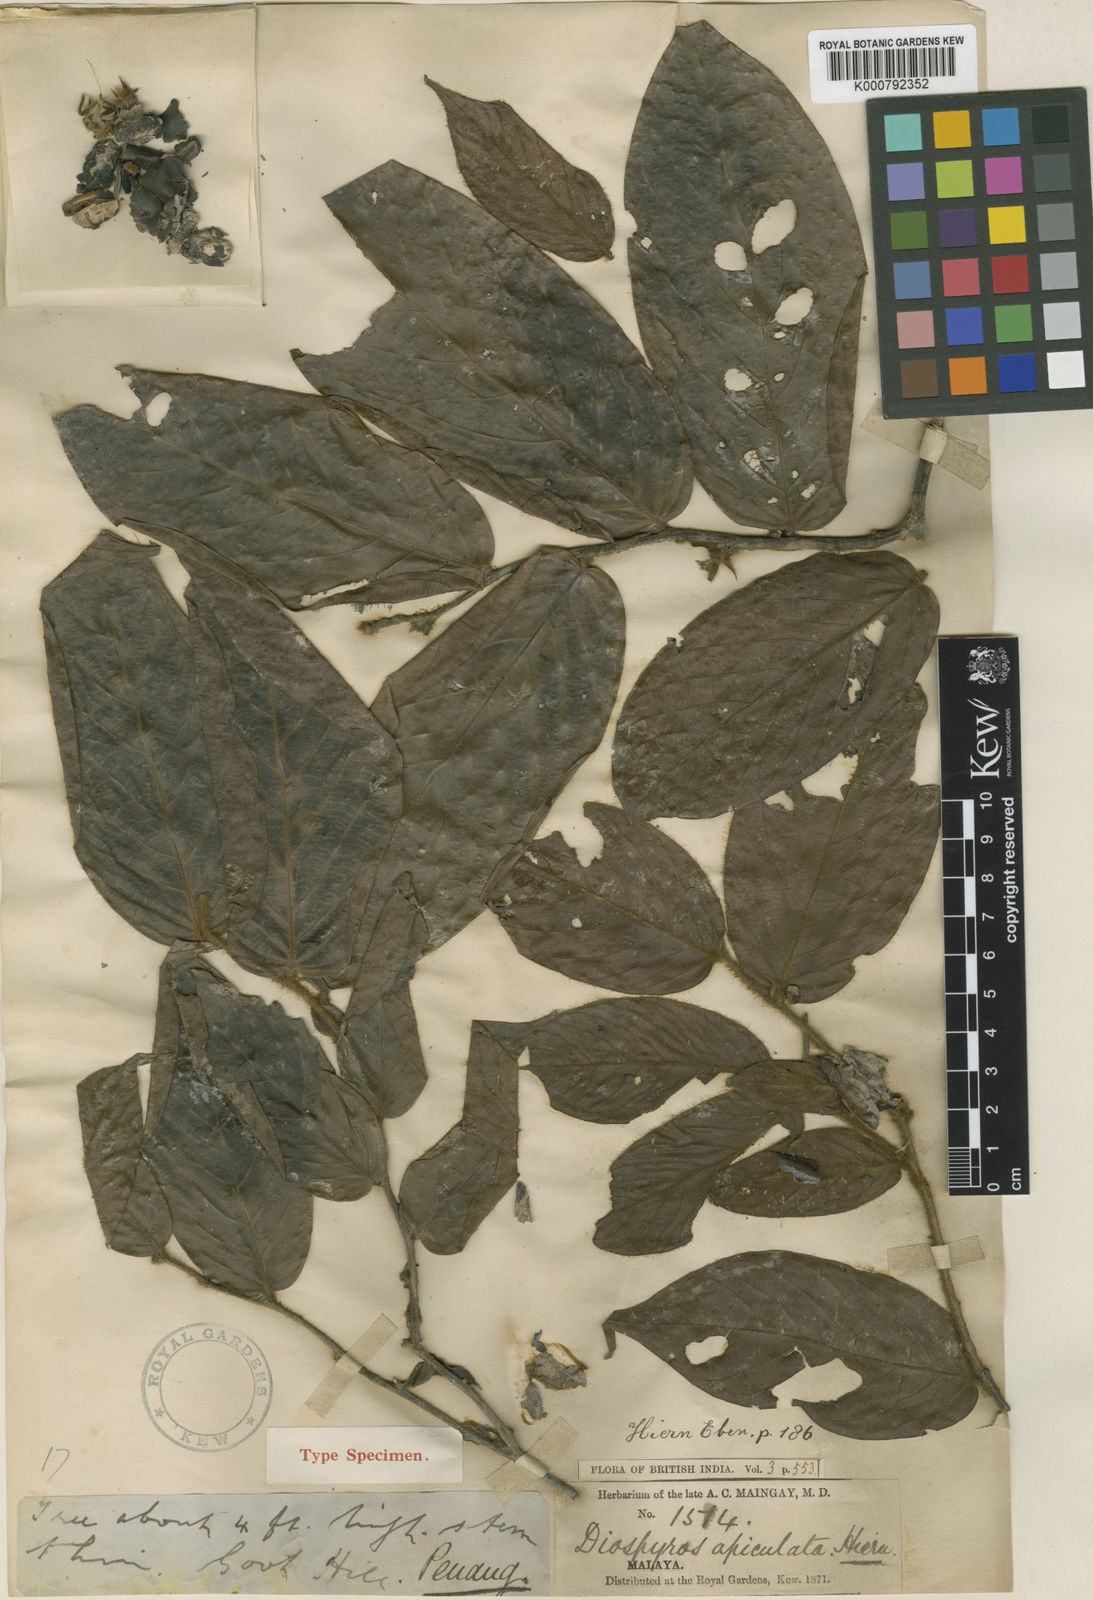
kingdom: Plantae
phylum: Tracheophyta
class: Magnoliopsida
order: Ericales
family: Ebenaceae
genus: Diospyros
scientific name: Diospyros apiculata
